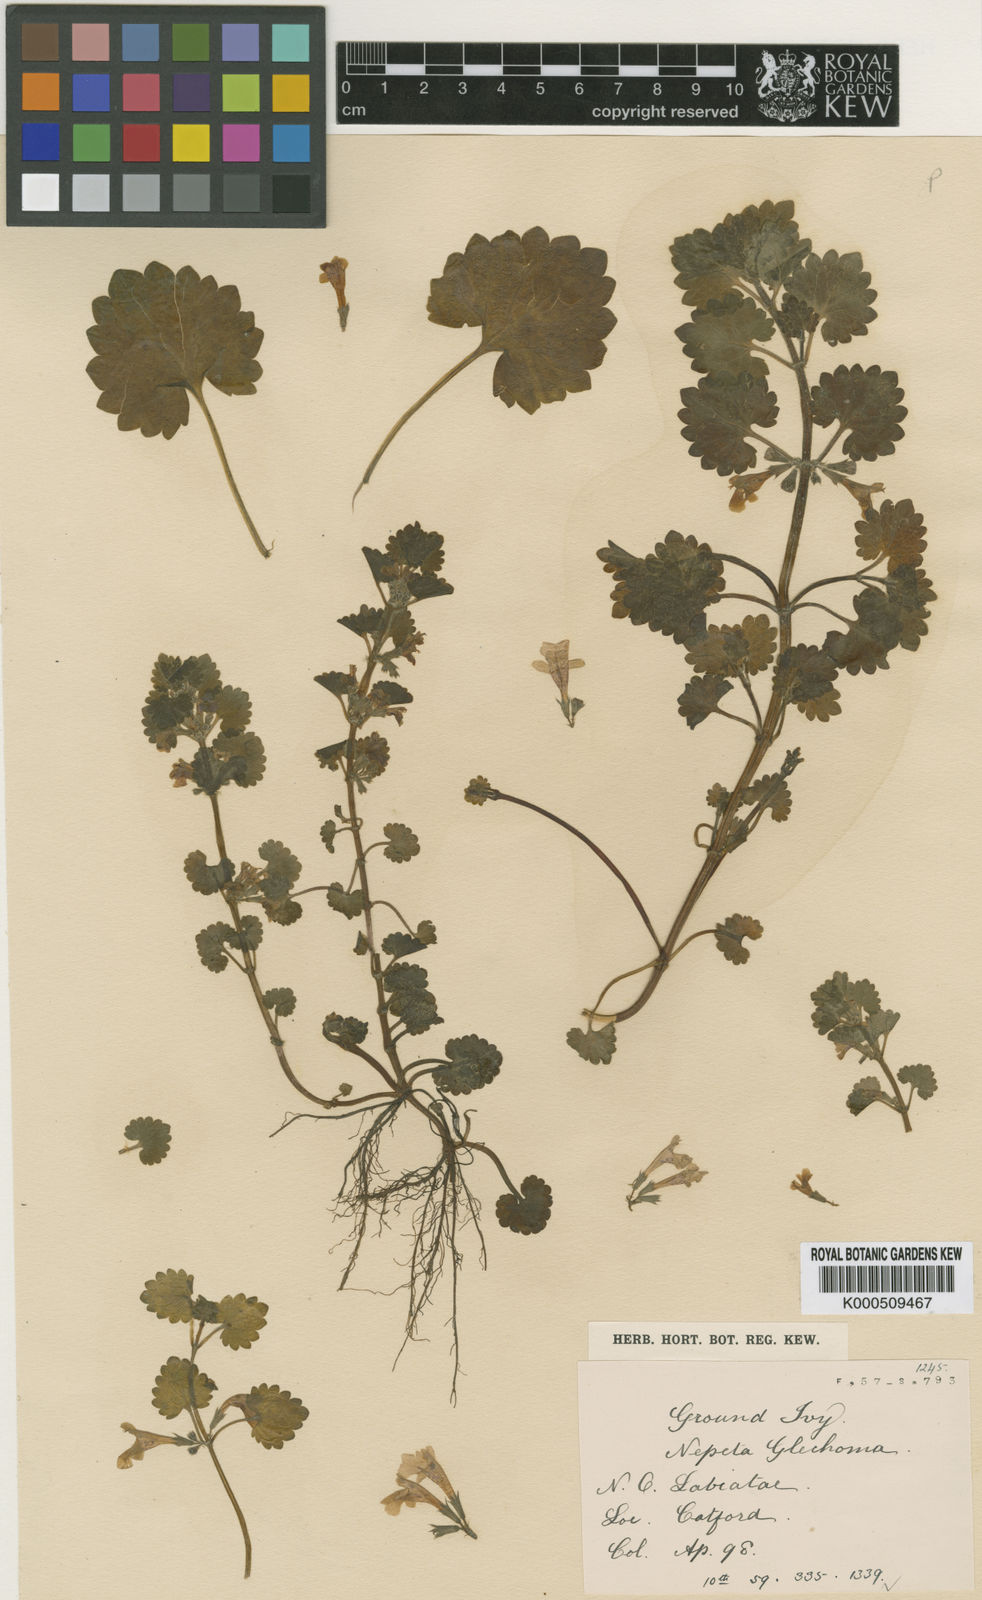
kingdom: Plantae
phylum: Tracheophyta
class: Magnoliopsida
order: Lamiales
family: Lamiaceae
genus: Glechoma
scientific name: Glechoma hederacea
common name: Ground ivy
